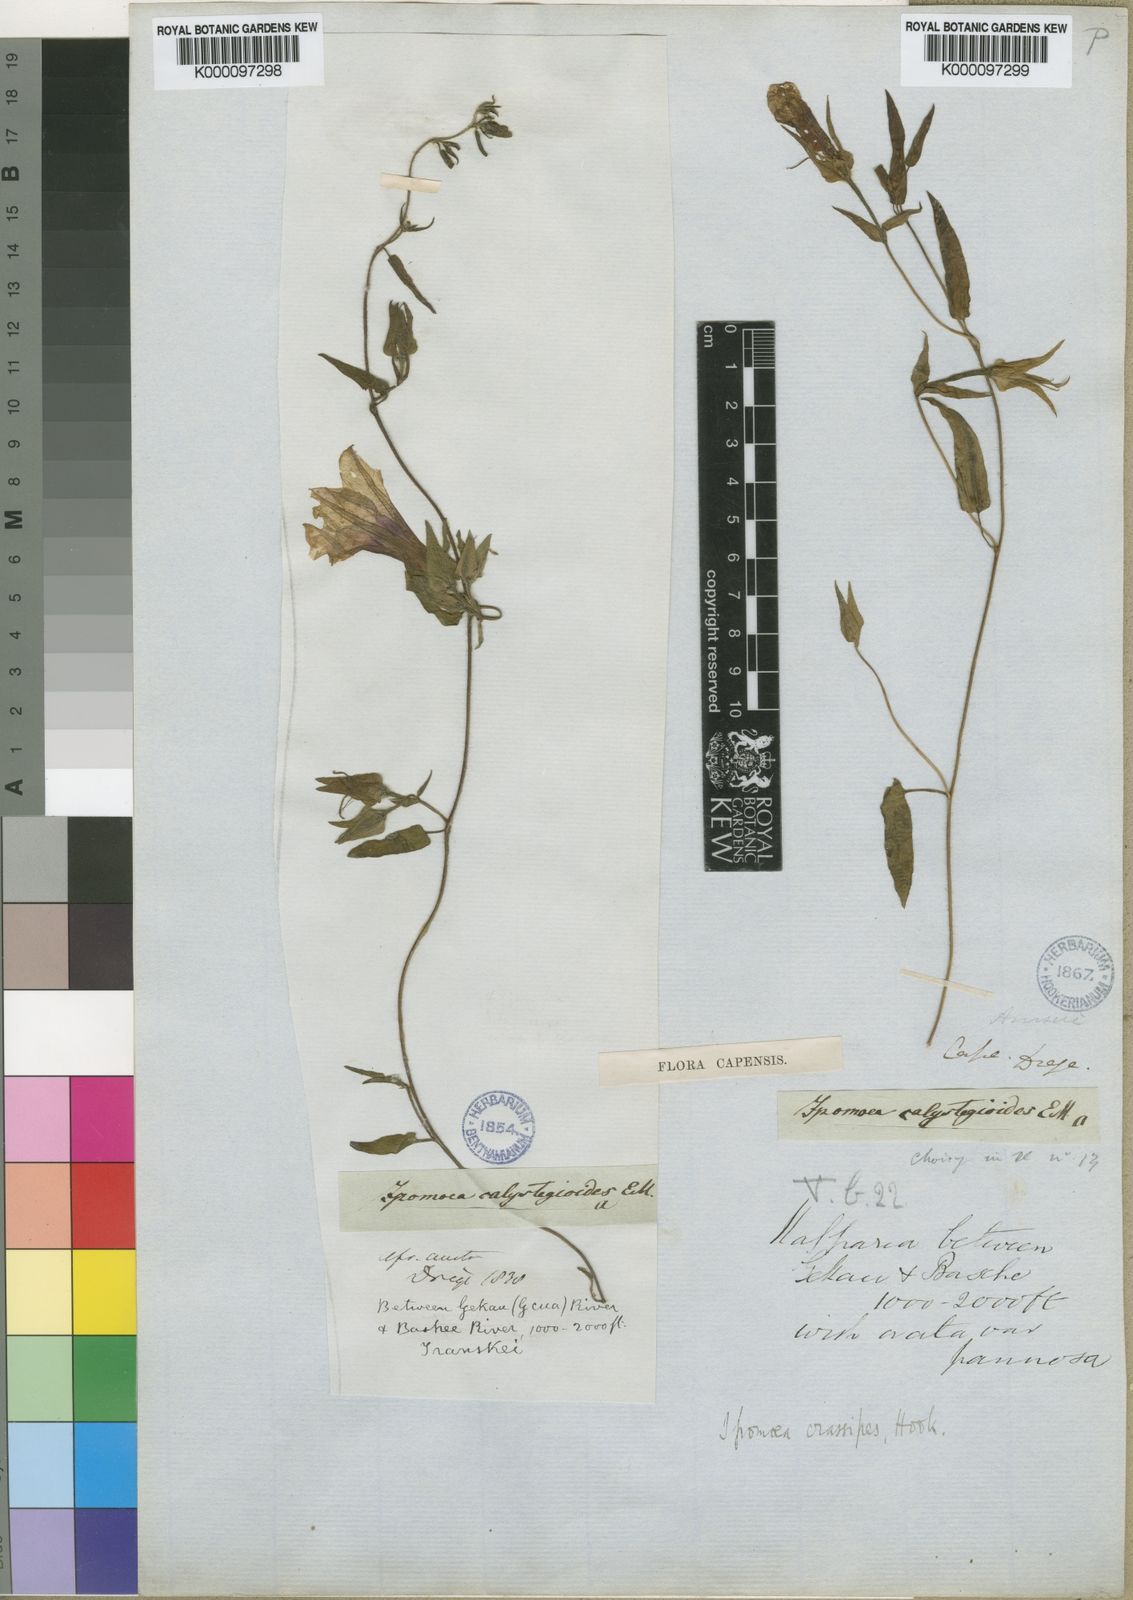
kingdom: Plantae
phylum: Tracheophyta
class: Magnoliopsida
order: Solanales
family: Convolvulaceae
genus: Ipomoea
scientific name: Ipomoea crassipes
